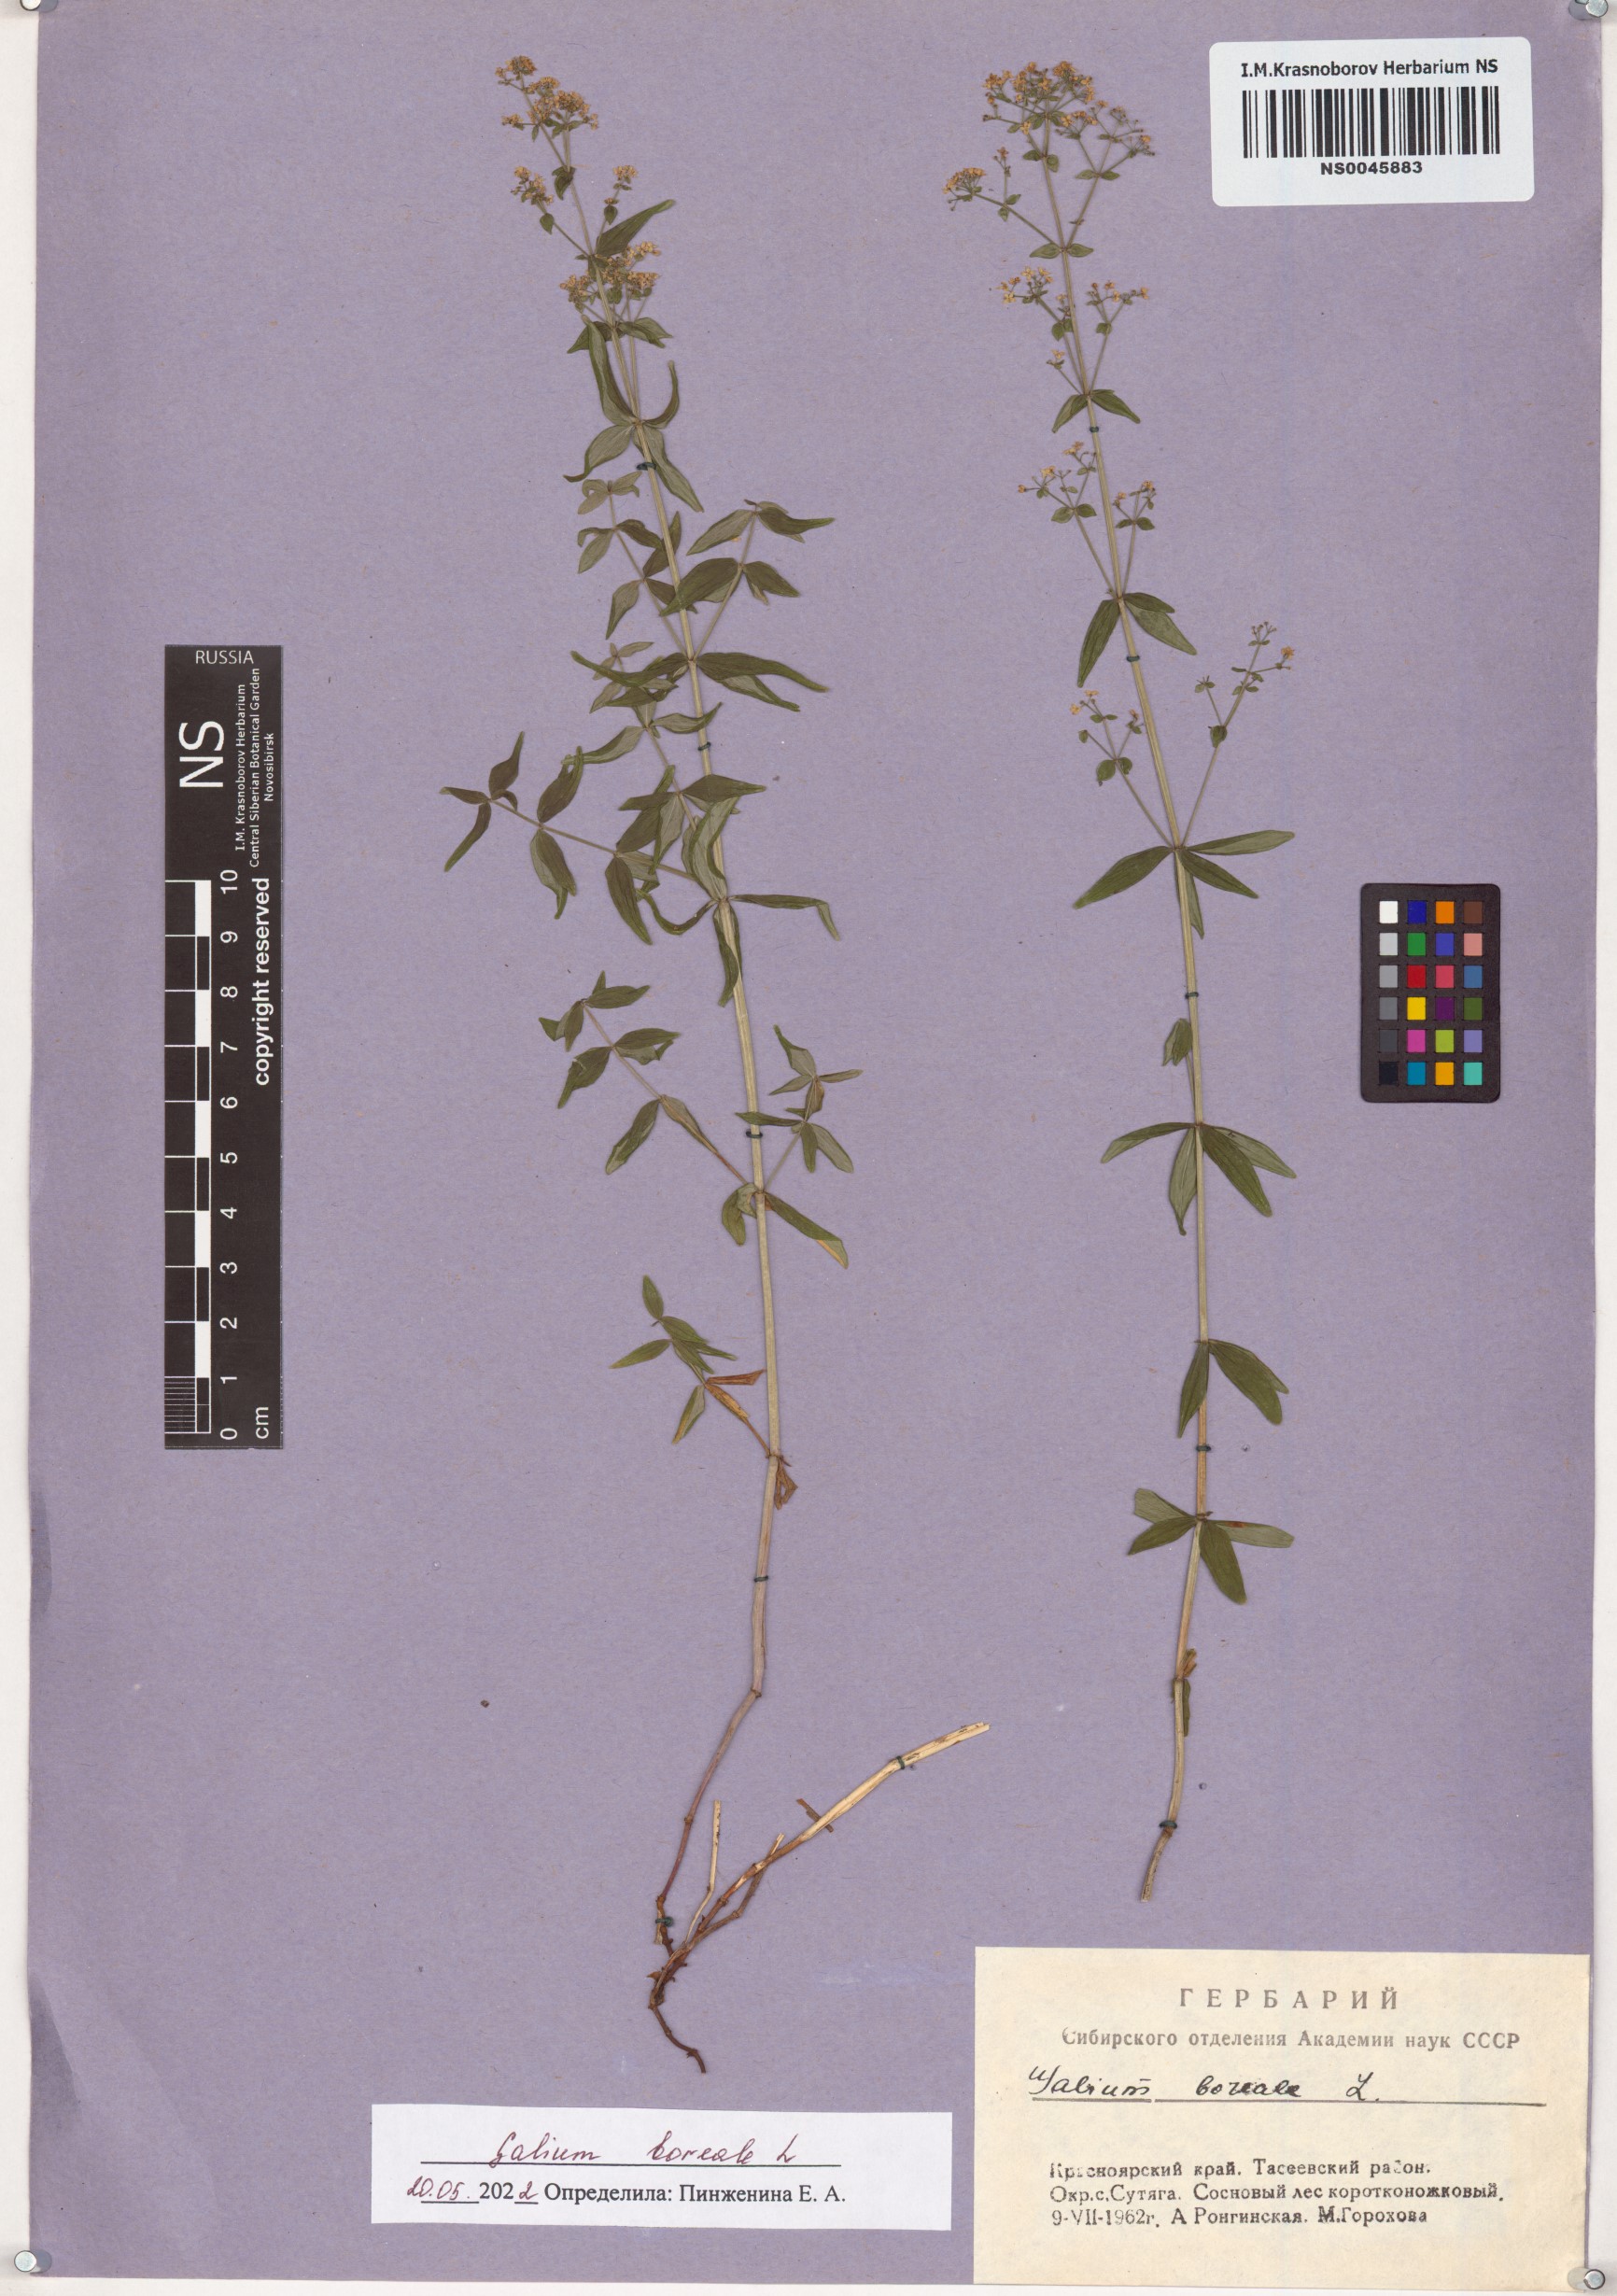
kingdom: Plantae
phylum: Tracheophyta
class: Magnoliopsida
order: Gentianales
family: Rubiaceae
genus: Galium
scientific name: Galium boreale
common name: Northern bedstraw
